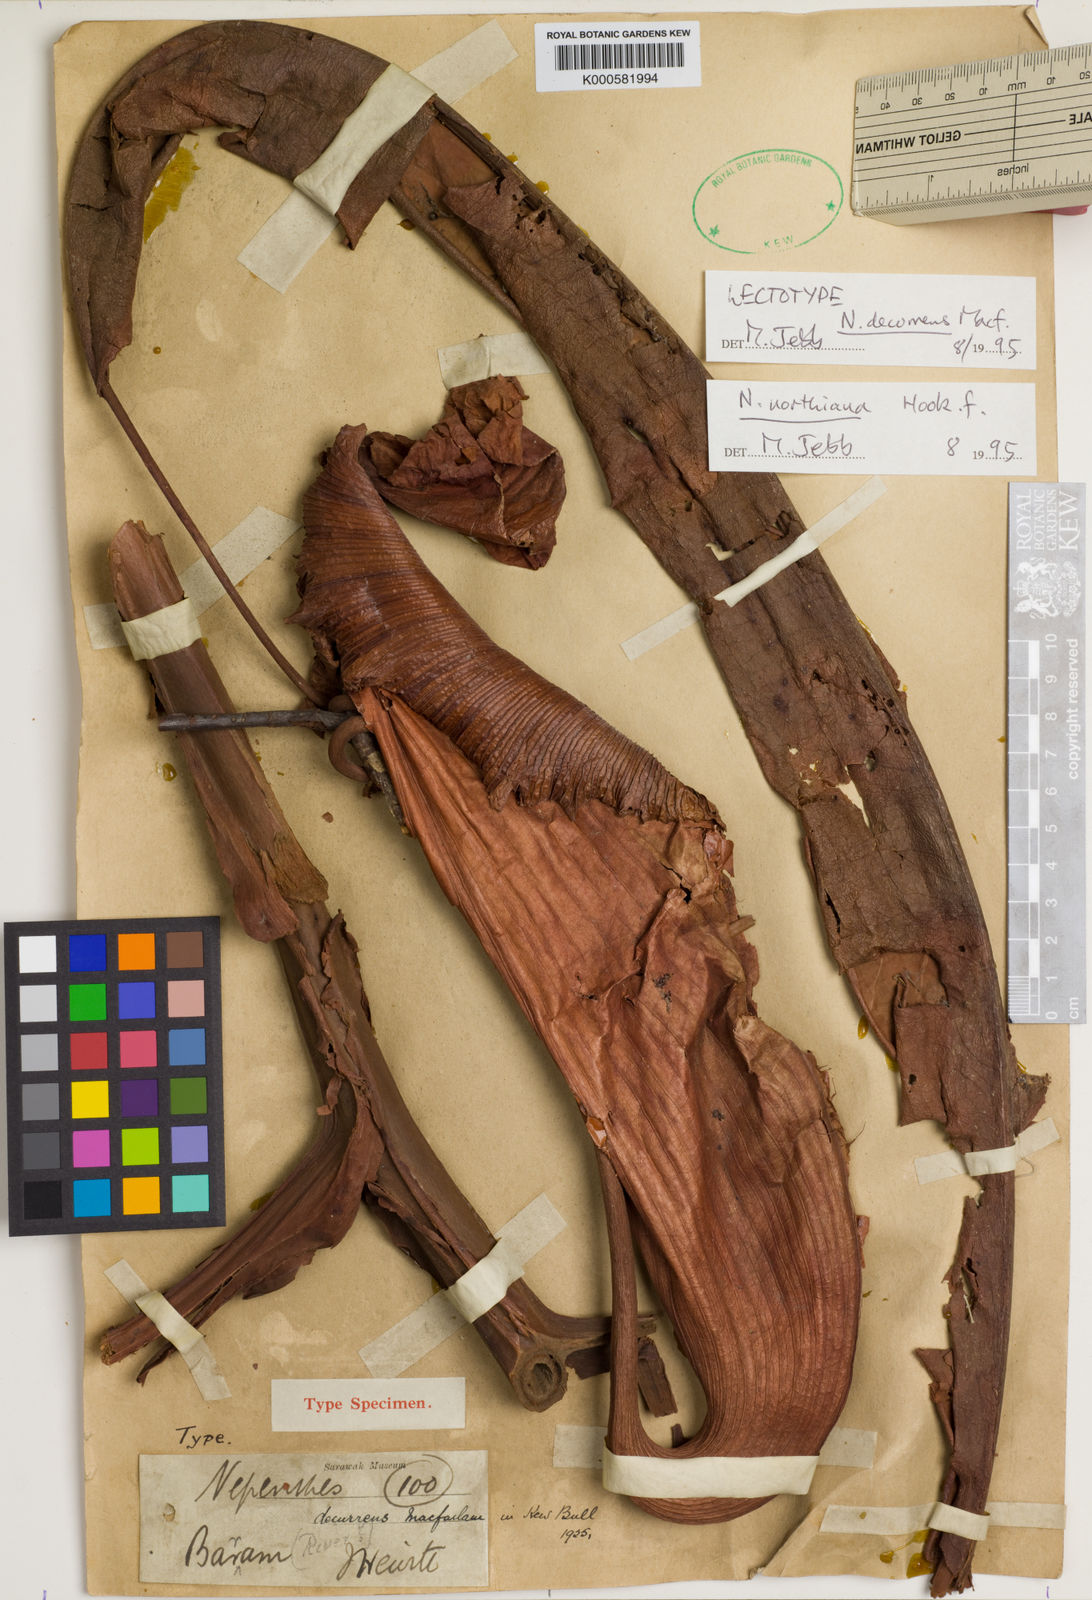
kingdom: Plantae
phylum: Tracheophyta
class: Magnoliopsida
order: Caryophyllales
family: Nepenthaceae
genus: Nepenthes
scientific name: Nepenthes northiana
